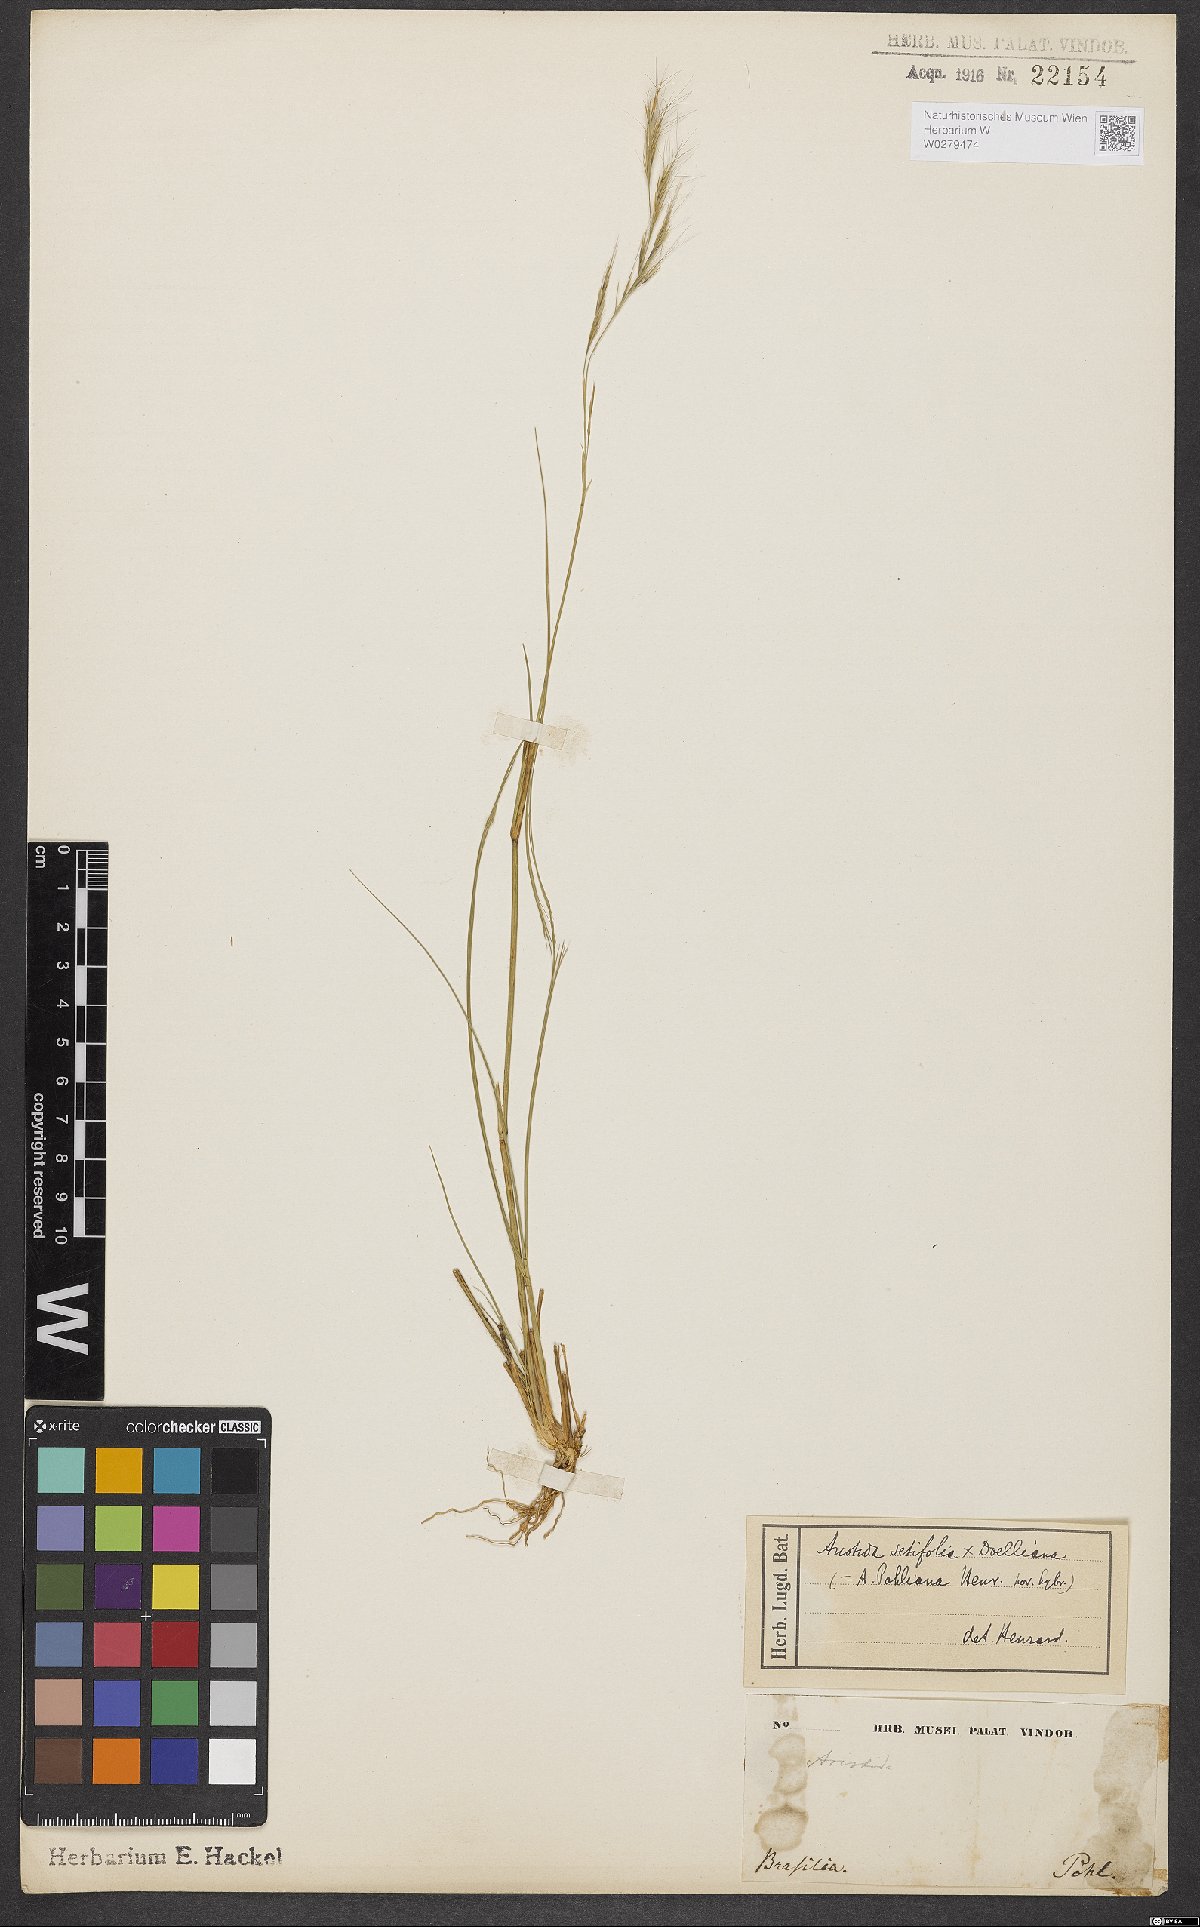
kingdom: Plantae
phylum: Tracheophyta
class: Liliopsida
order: Poales
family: Poaceae
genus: Aristida
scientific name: Aristida setifolia
